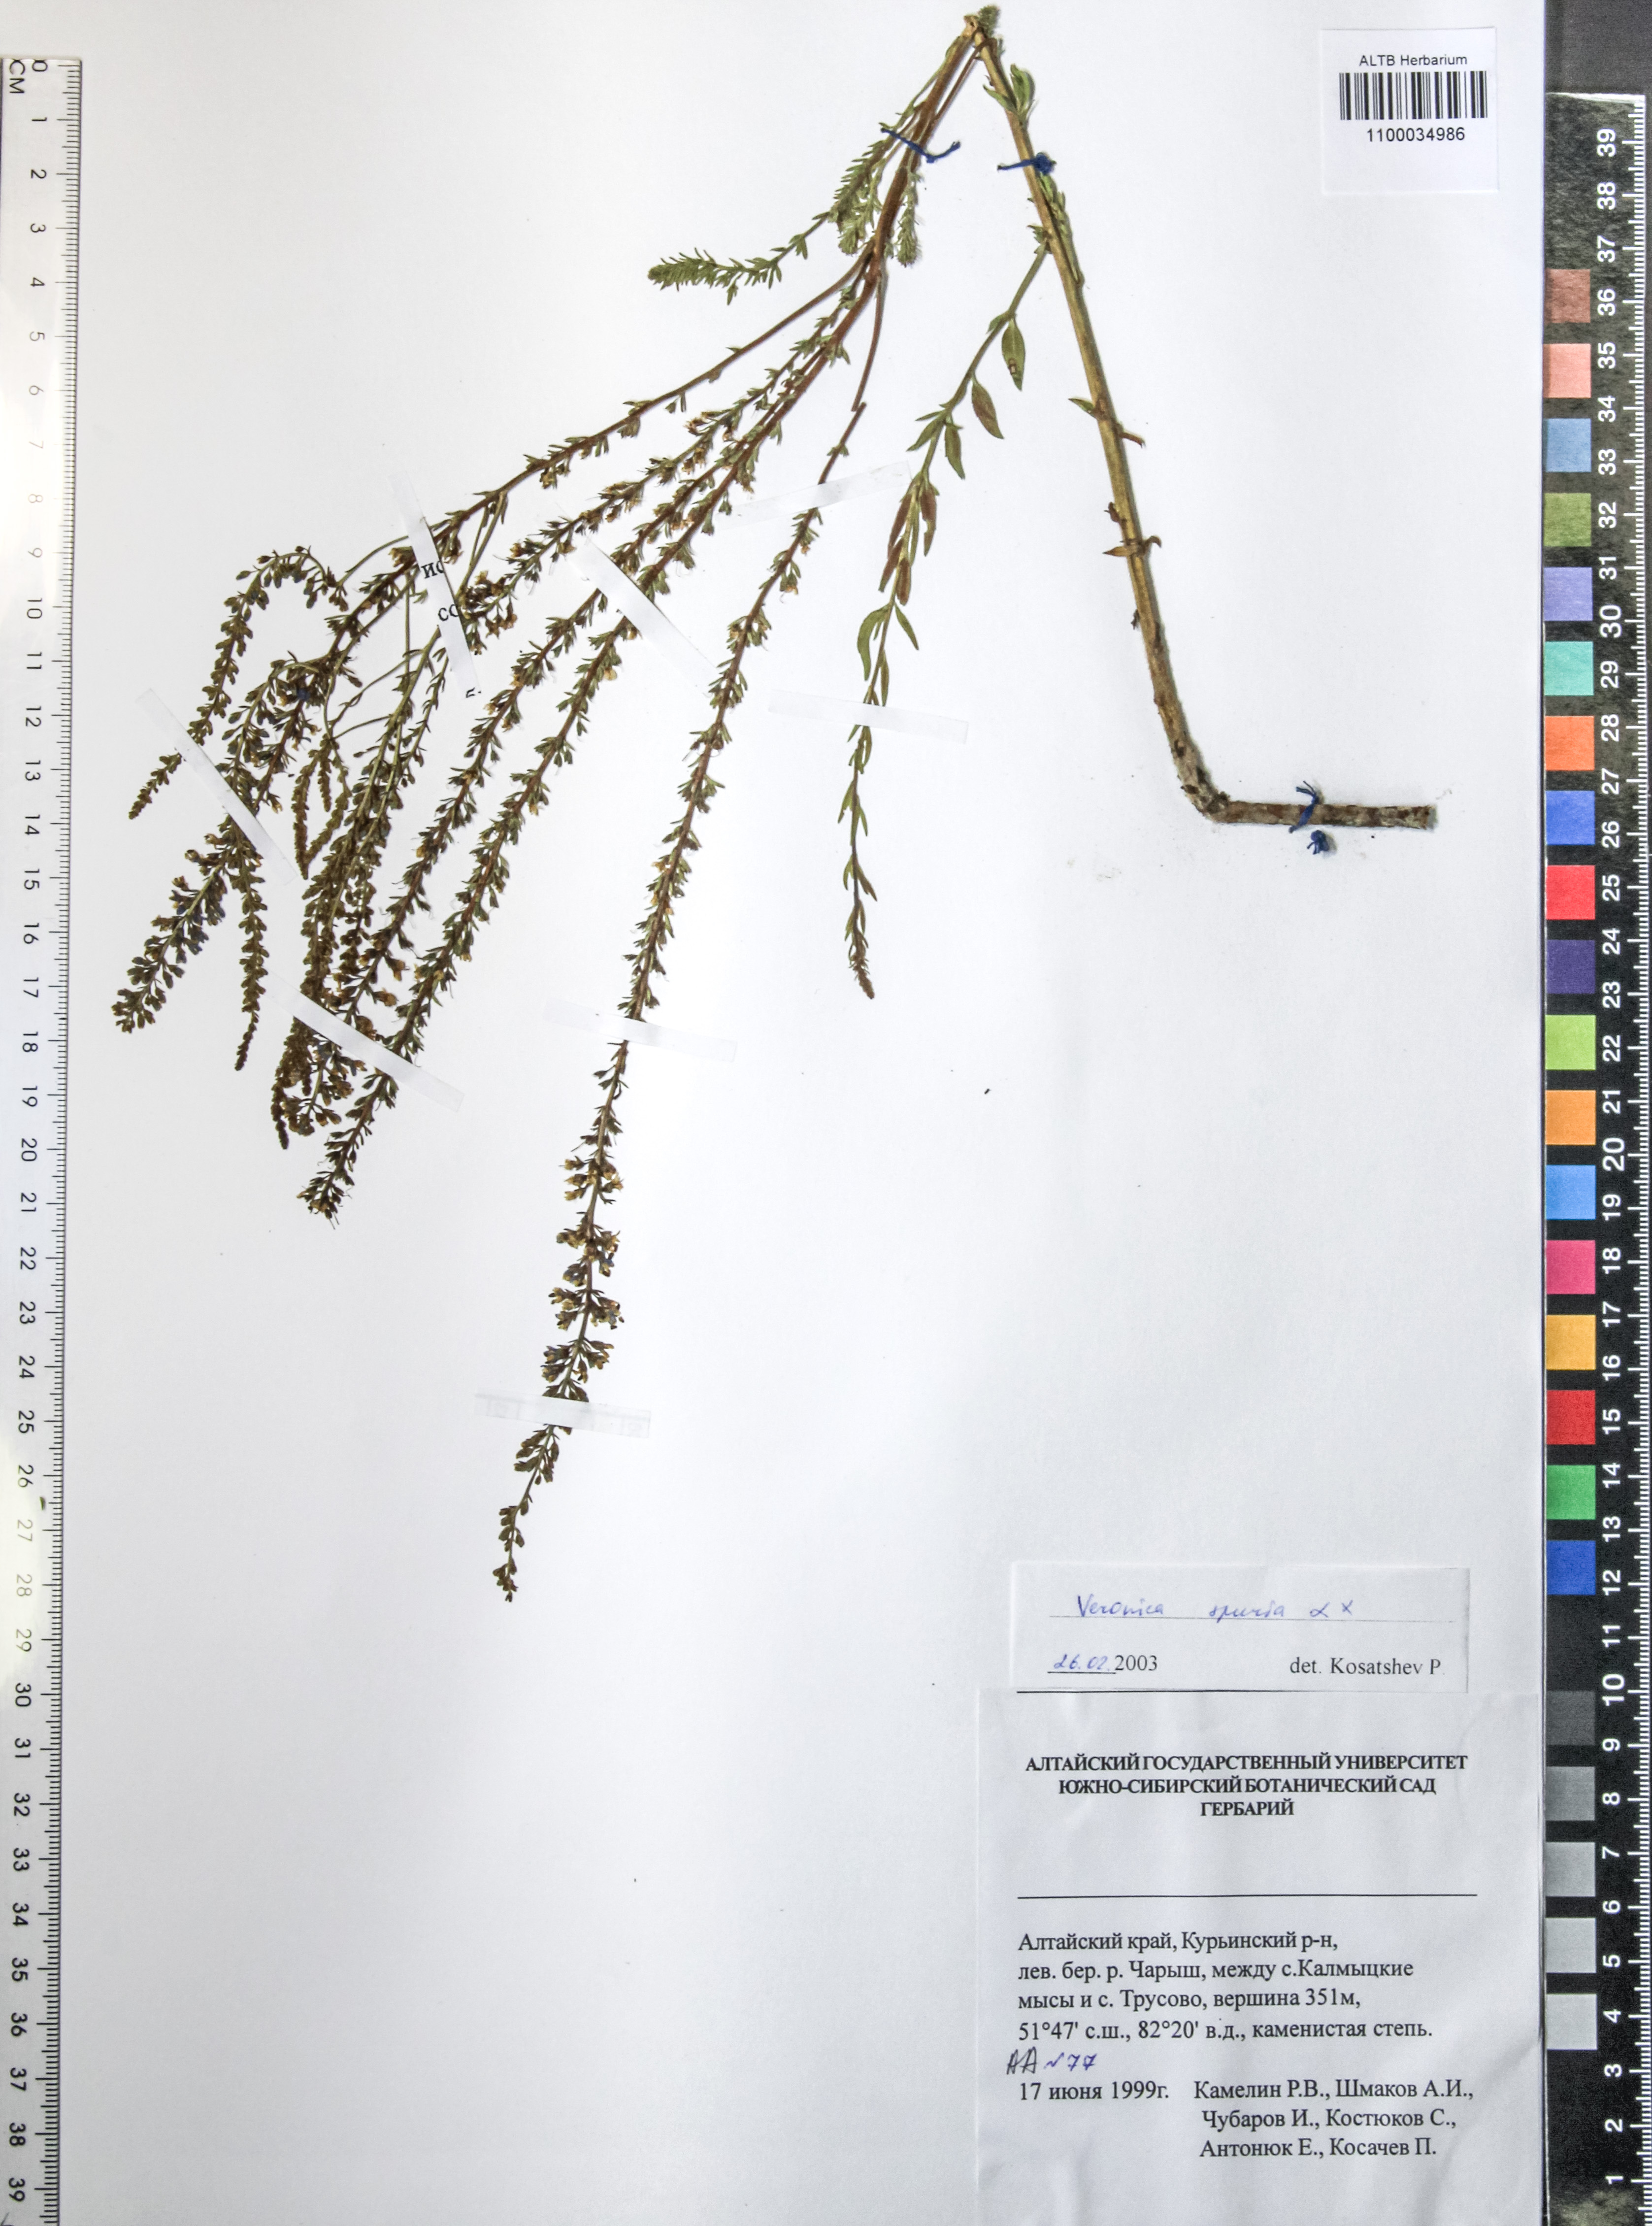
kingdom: Plantae
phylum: Tracheophyta
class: Magnoliopsida
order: Lamiales
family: Plantaginaceae
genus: Veronica
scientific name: Veronica spuria
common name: Bastard speedwell
